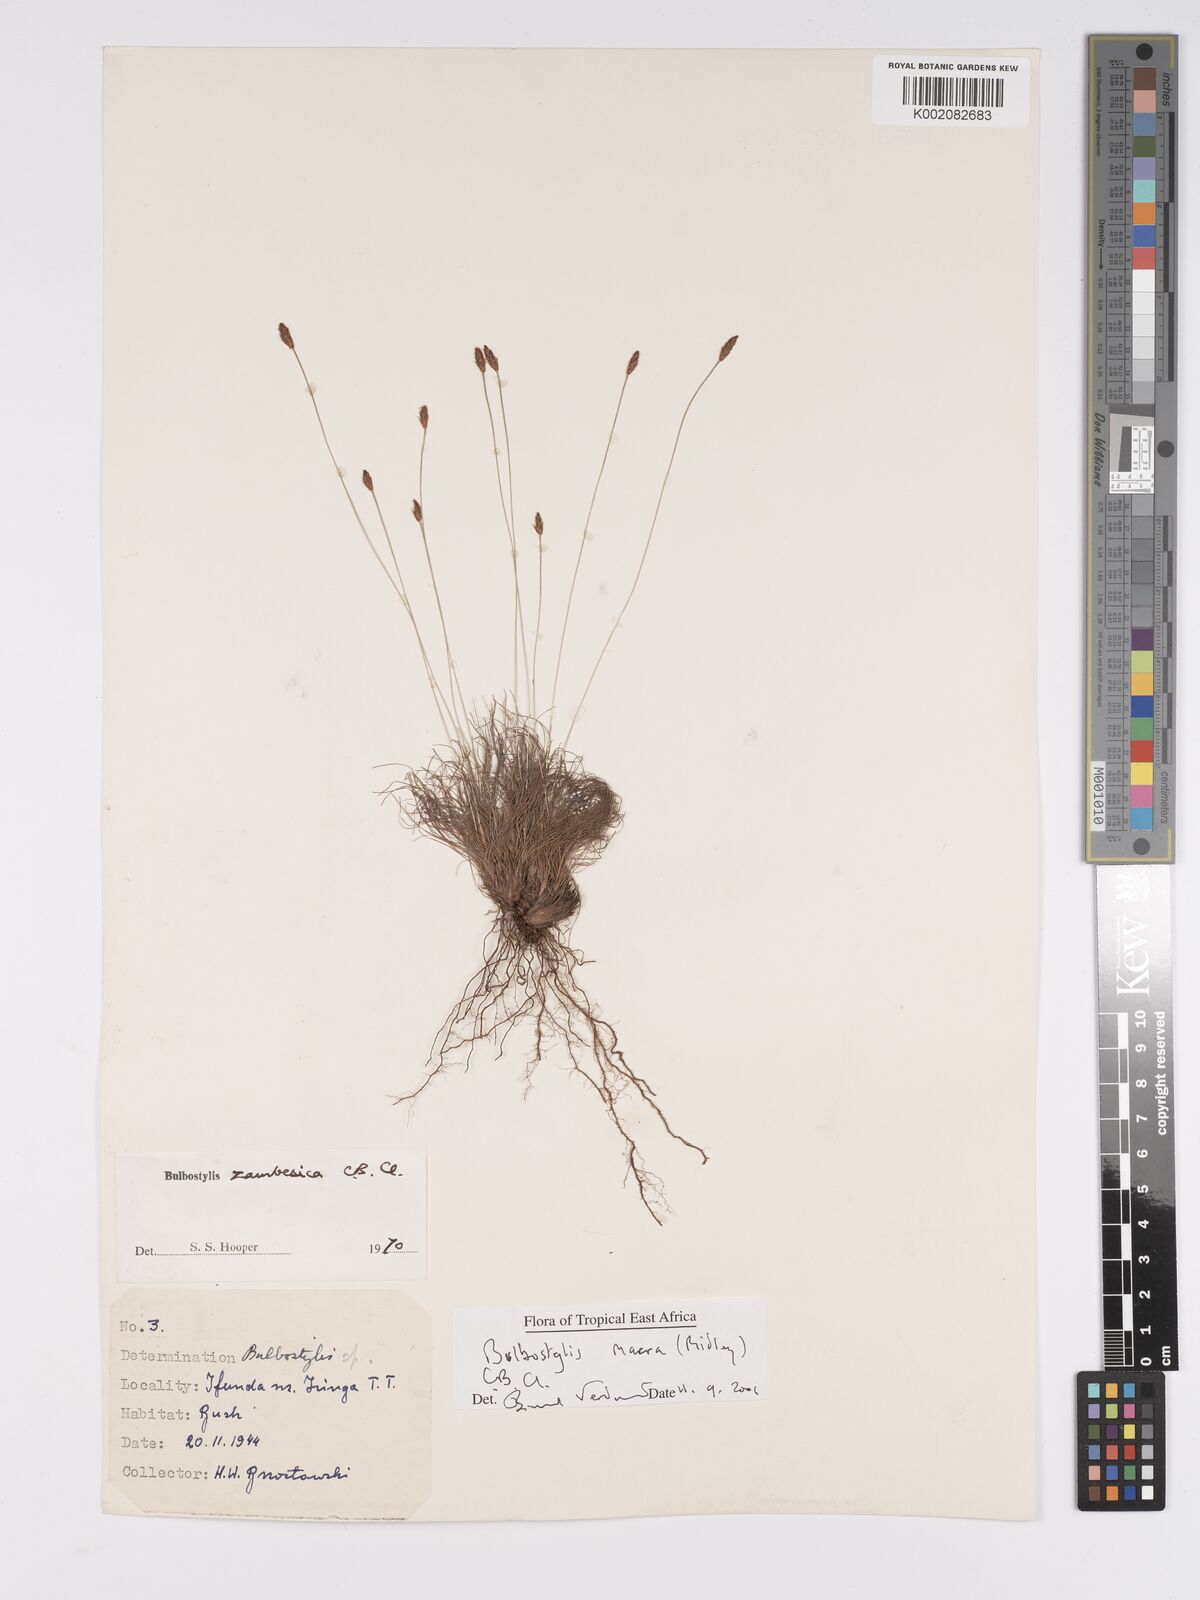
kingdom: Plantae
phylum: Tracheophyta
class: Liliopsida
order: Poales
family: Cyperaceae
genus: Bulbostylis
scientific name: Bulbostylis macra
